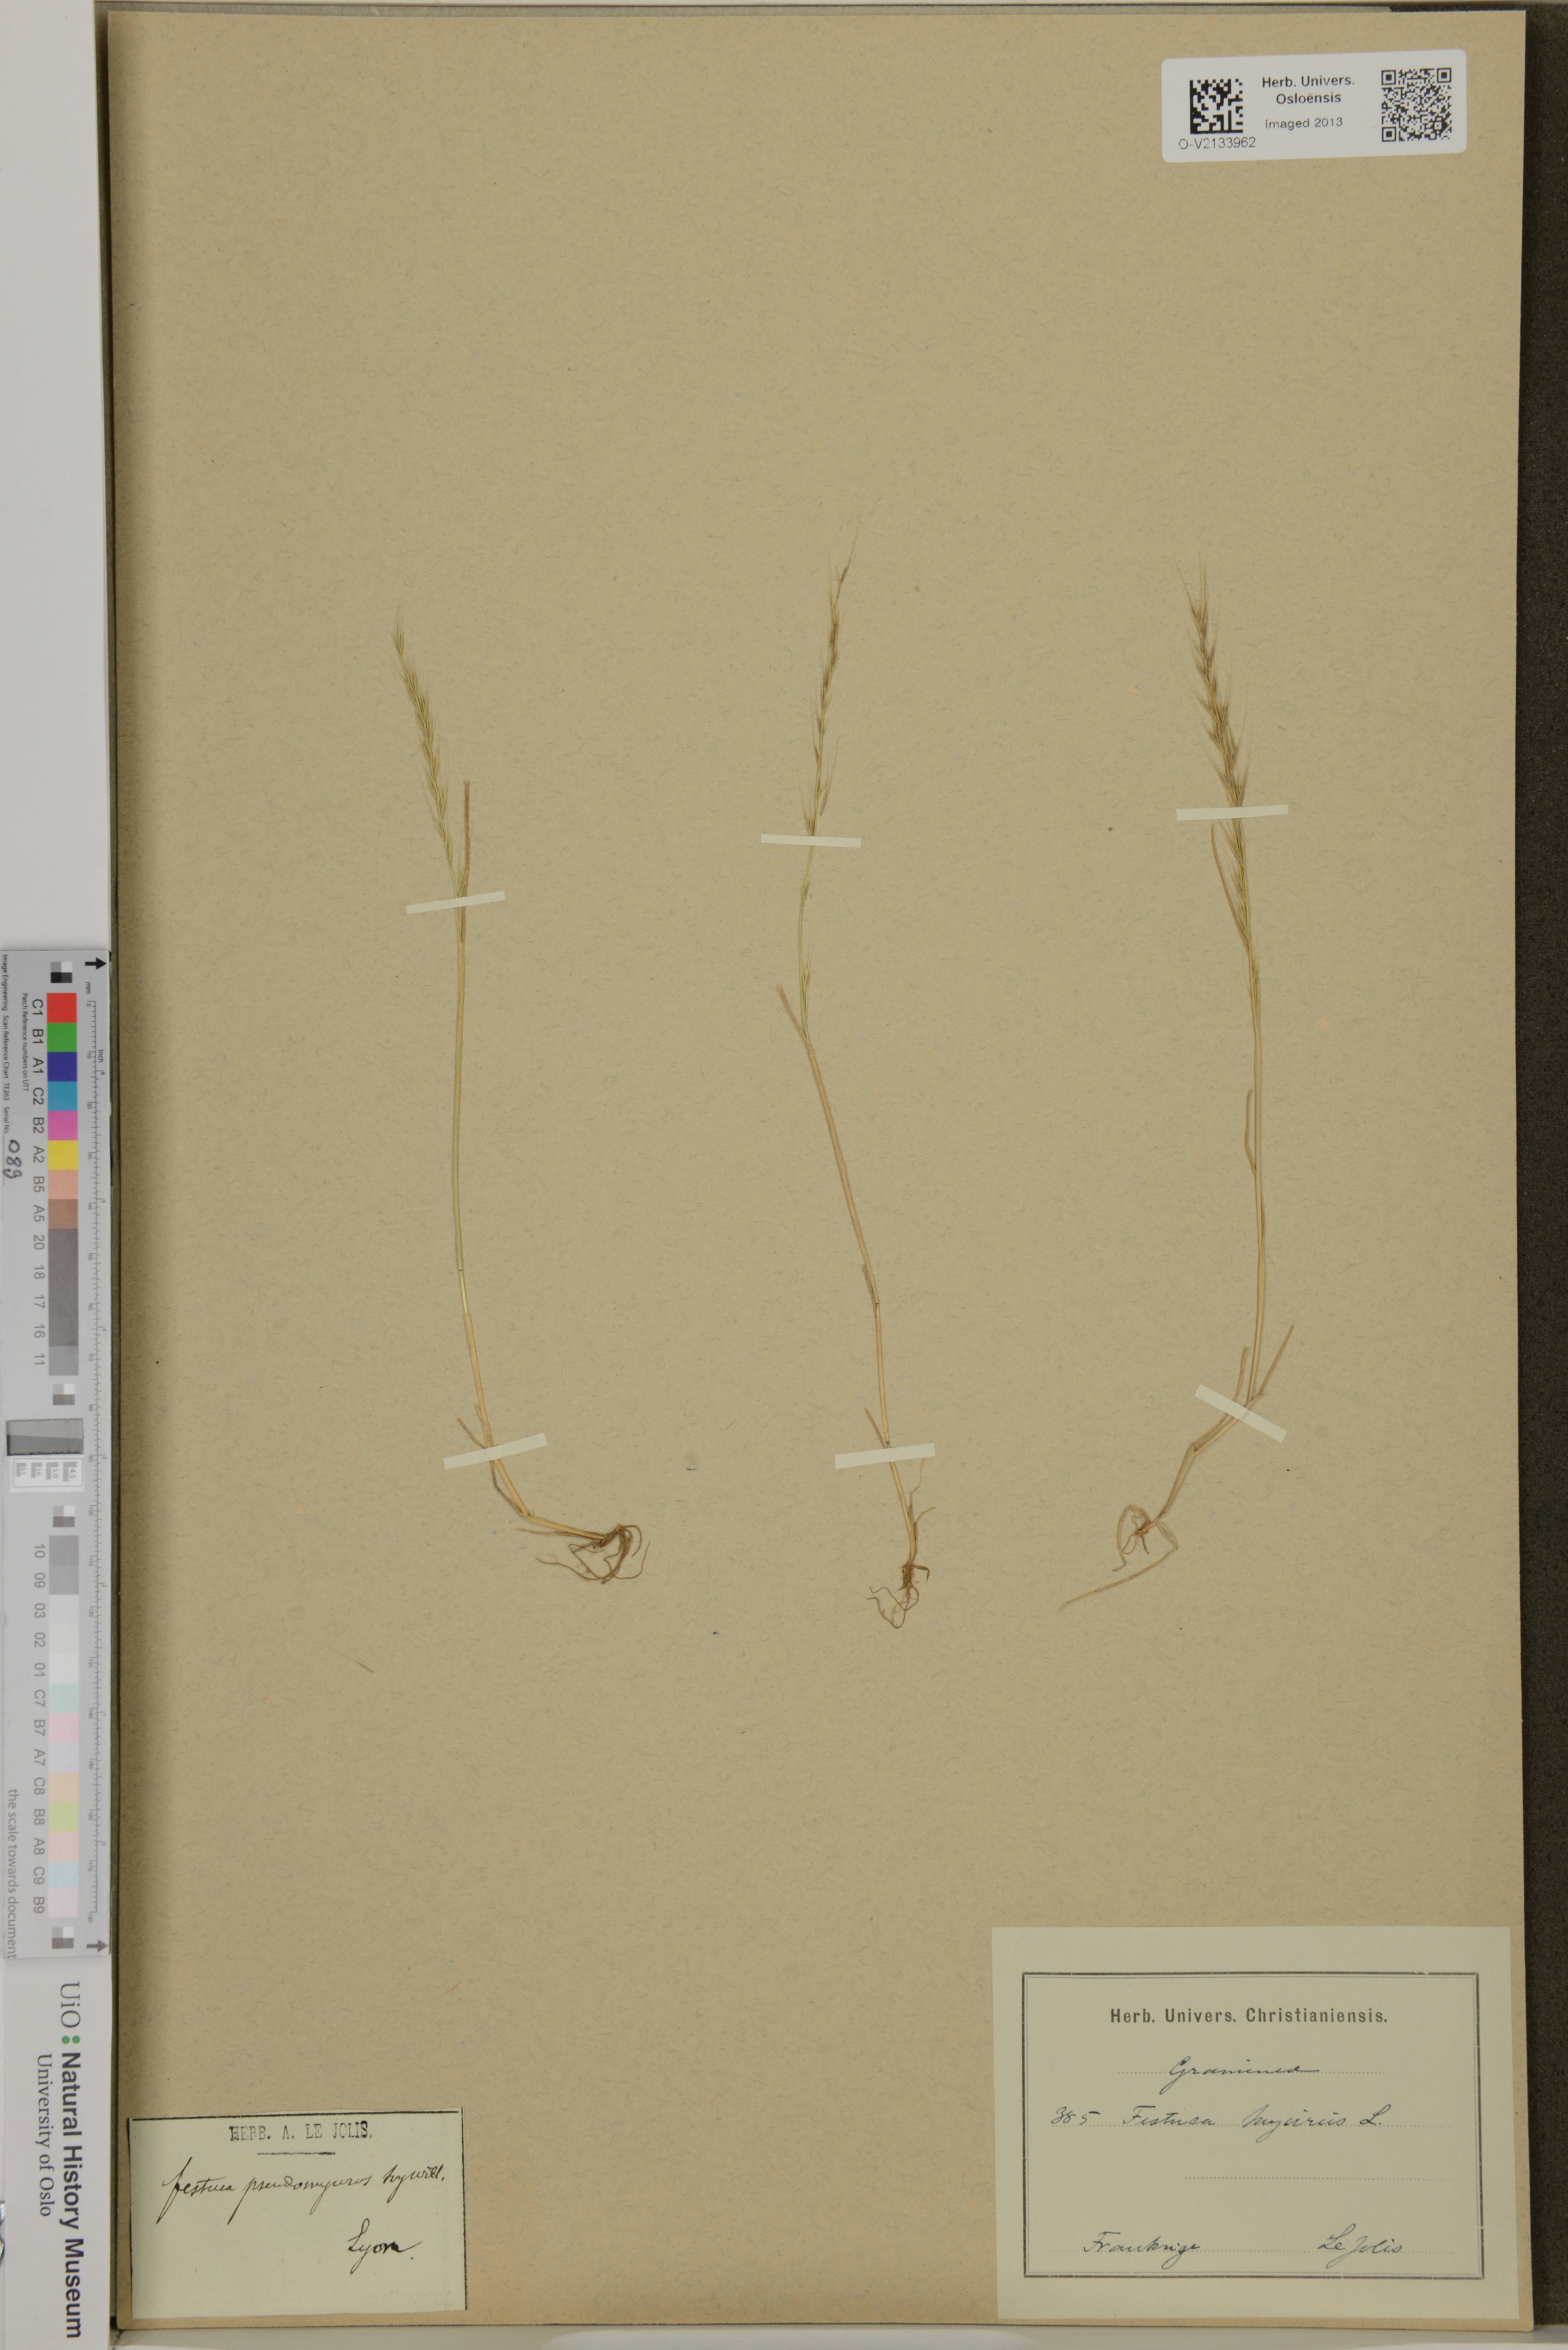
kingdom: Plantae
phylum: Tracheophyta
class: Liliopsida
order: Poales
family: Poaceae
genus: Festuca
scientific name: Festuca myurus
